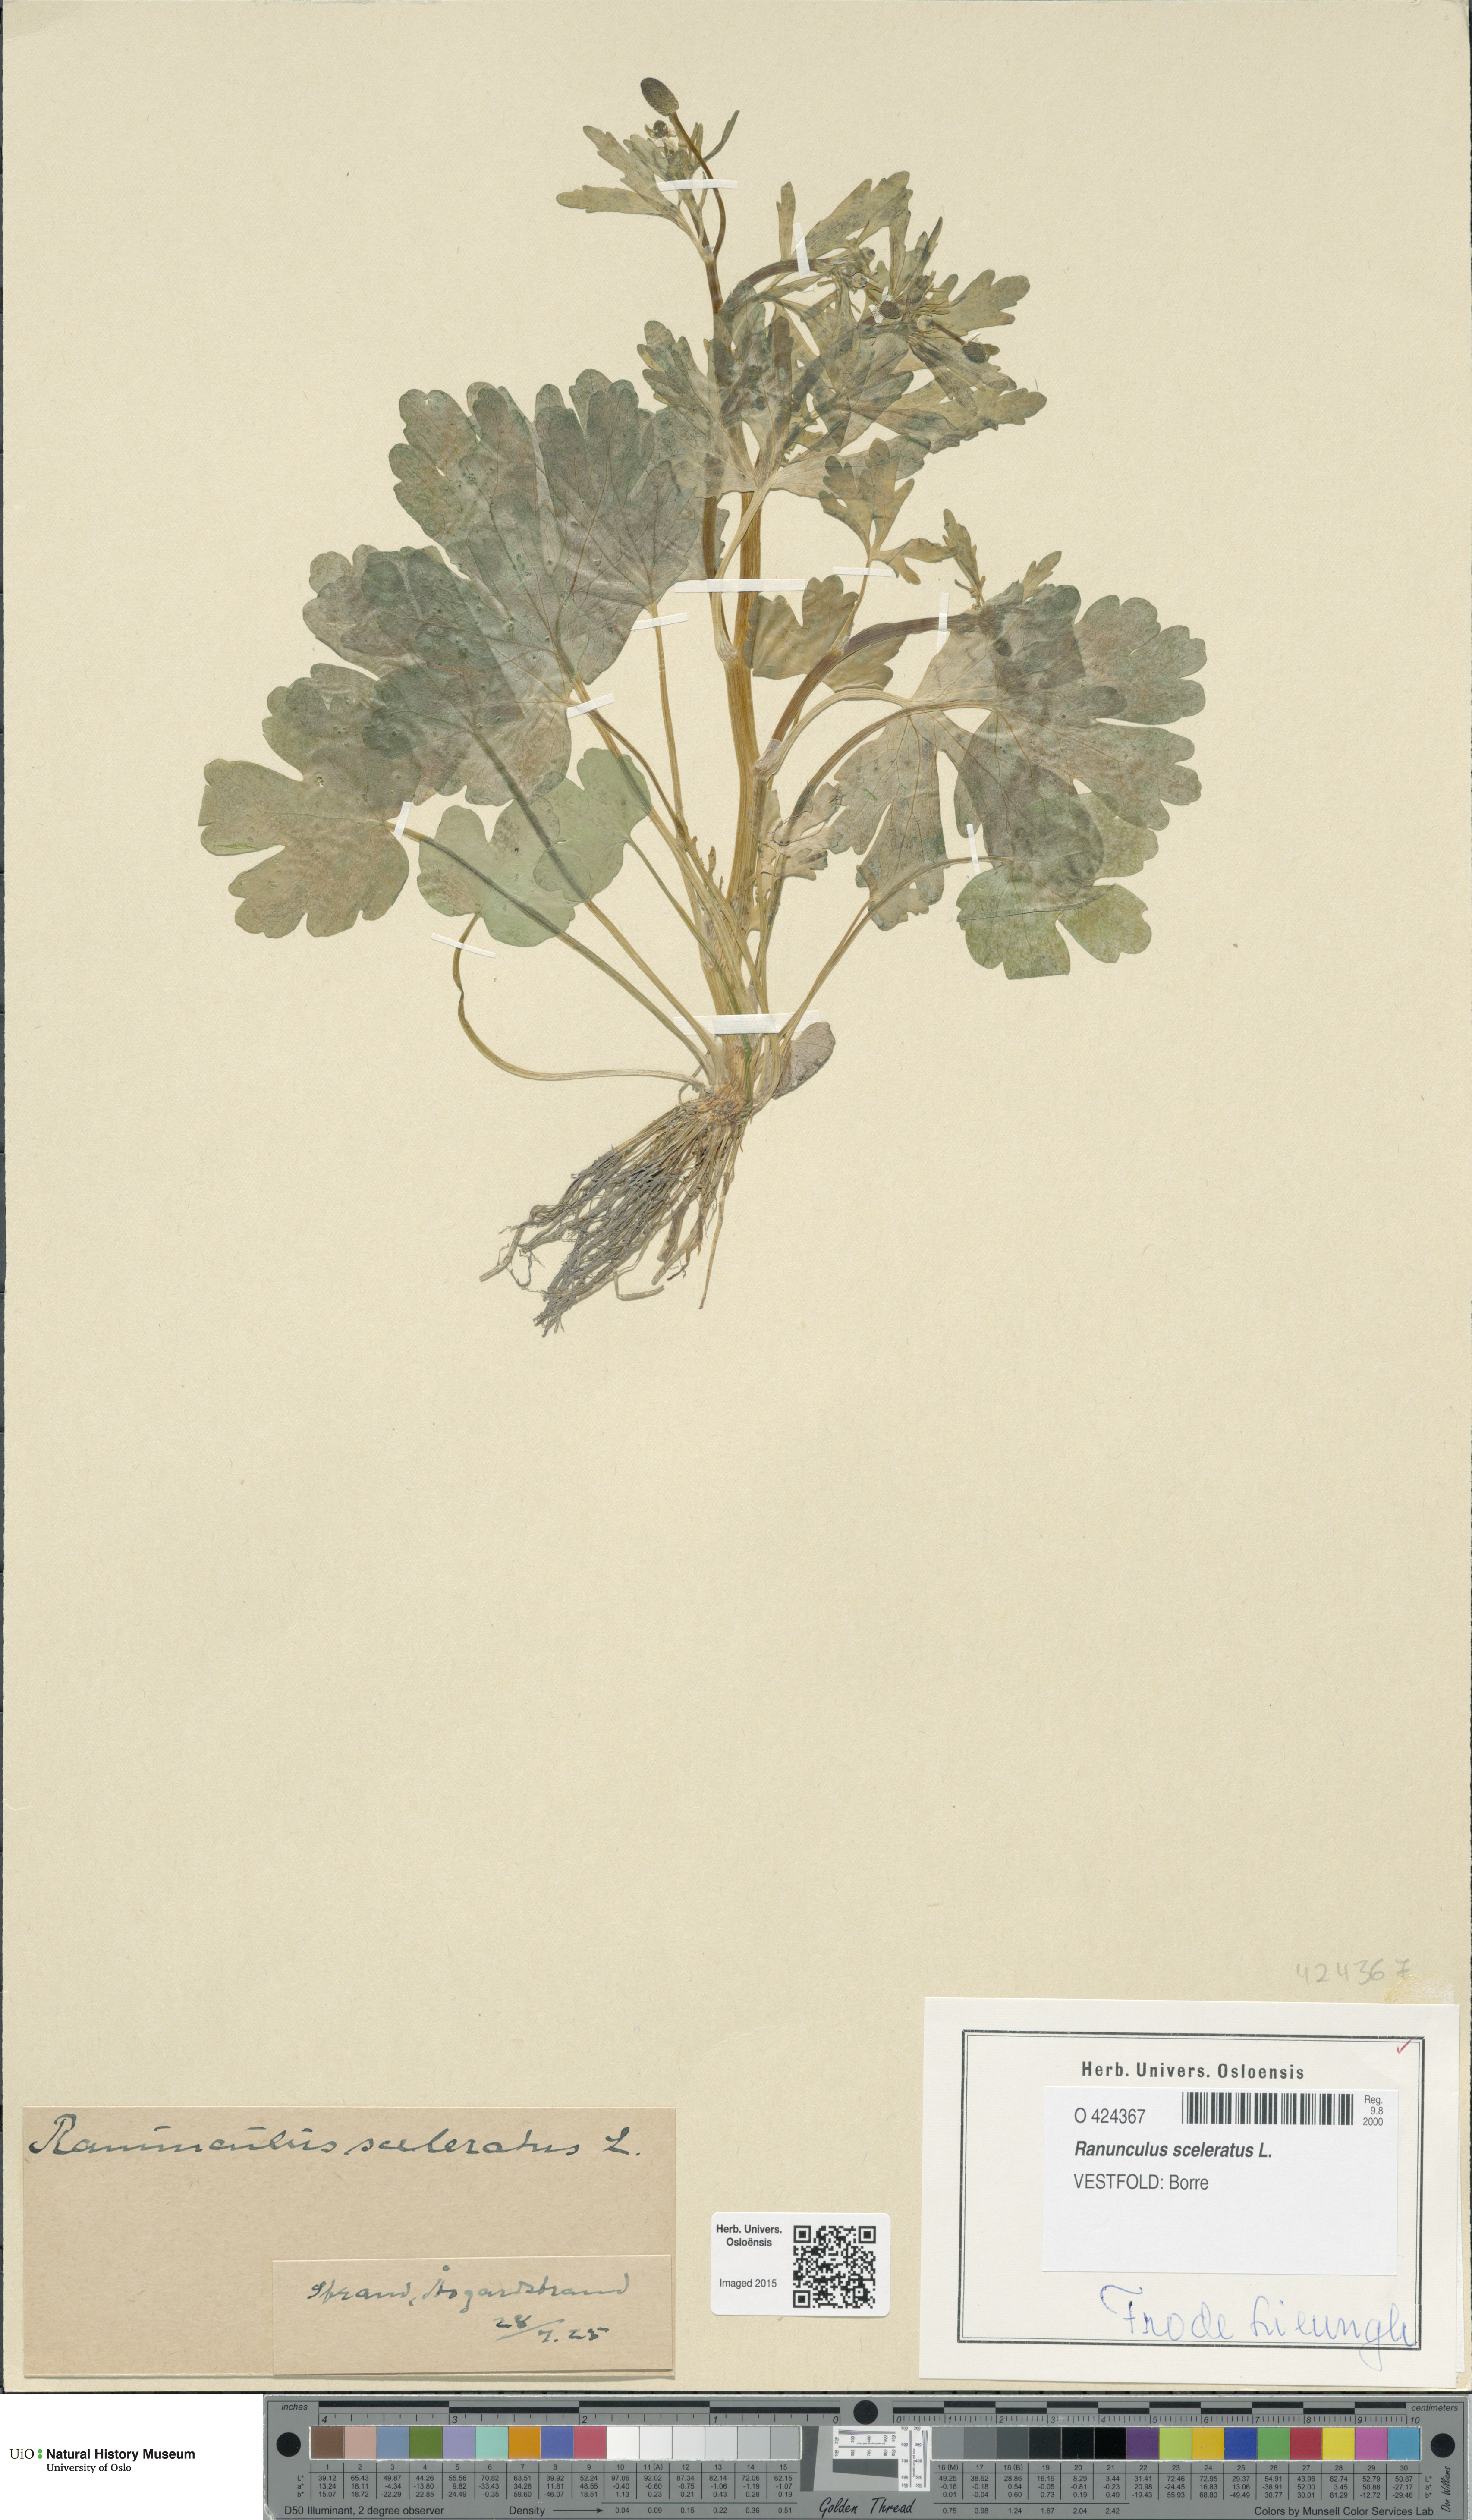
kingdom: Plantae
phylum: Tracheophyta
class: Magnoliopsida
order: Ranunculales
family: Ranunculaceae
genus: Ranunculus
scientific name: Ranunculus sceleratus
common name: Celery-leaved buttercup
